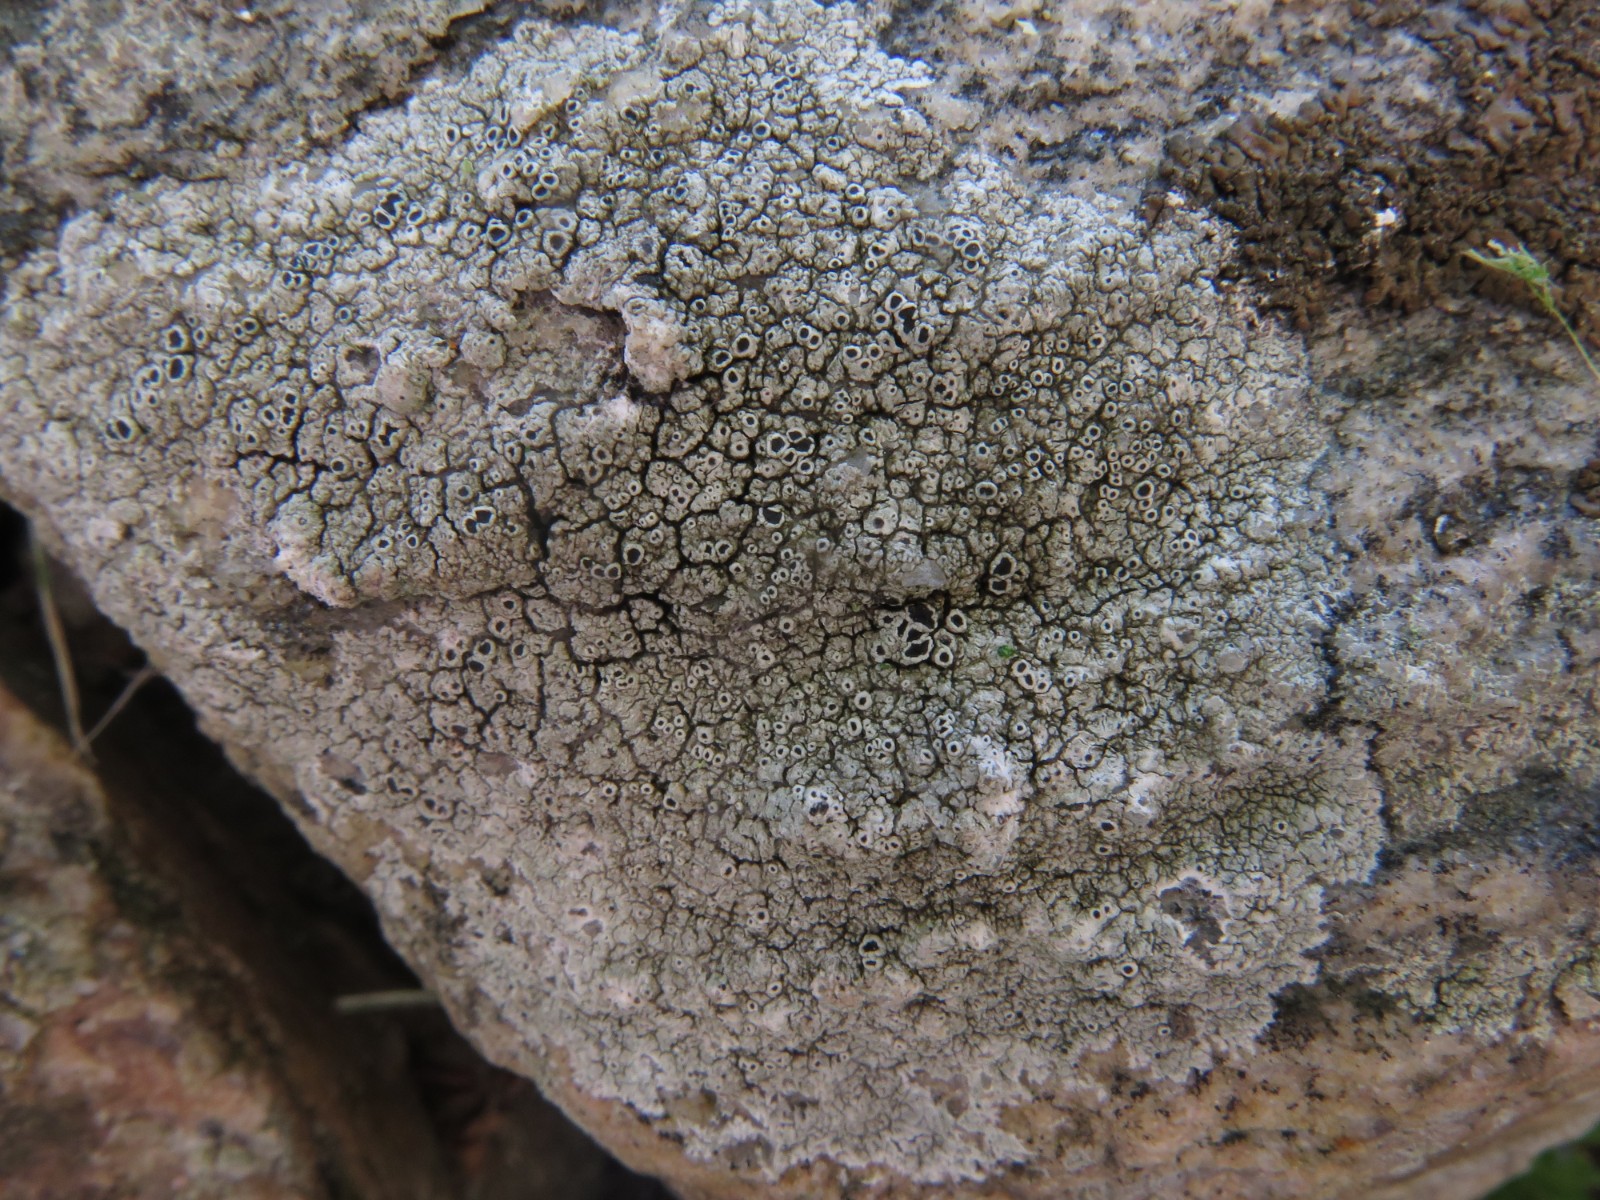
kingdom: Fungi
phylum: Ascomycota
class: Lecanoromycetes
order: Lecanorales
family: Tephromelataceae
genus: Tephromela
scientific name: Tephromela atra
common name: sortfrugtet kantskivelav
